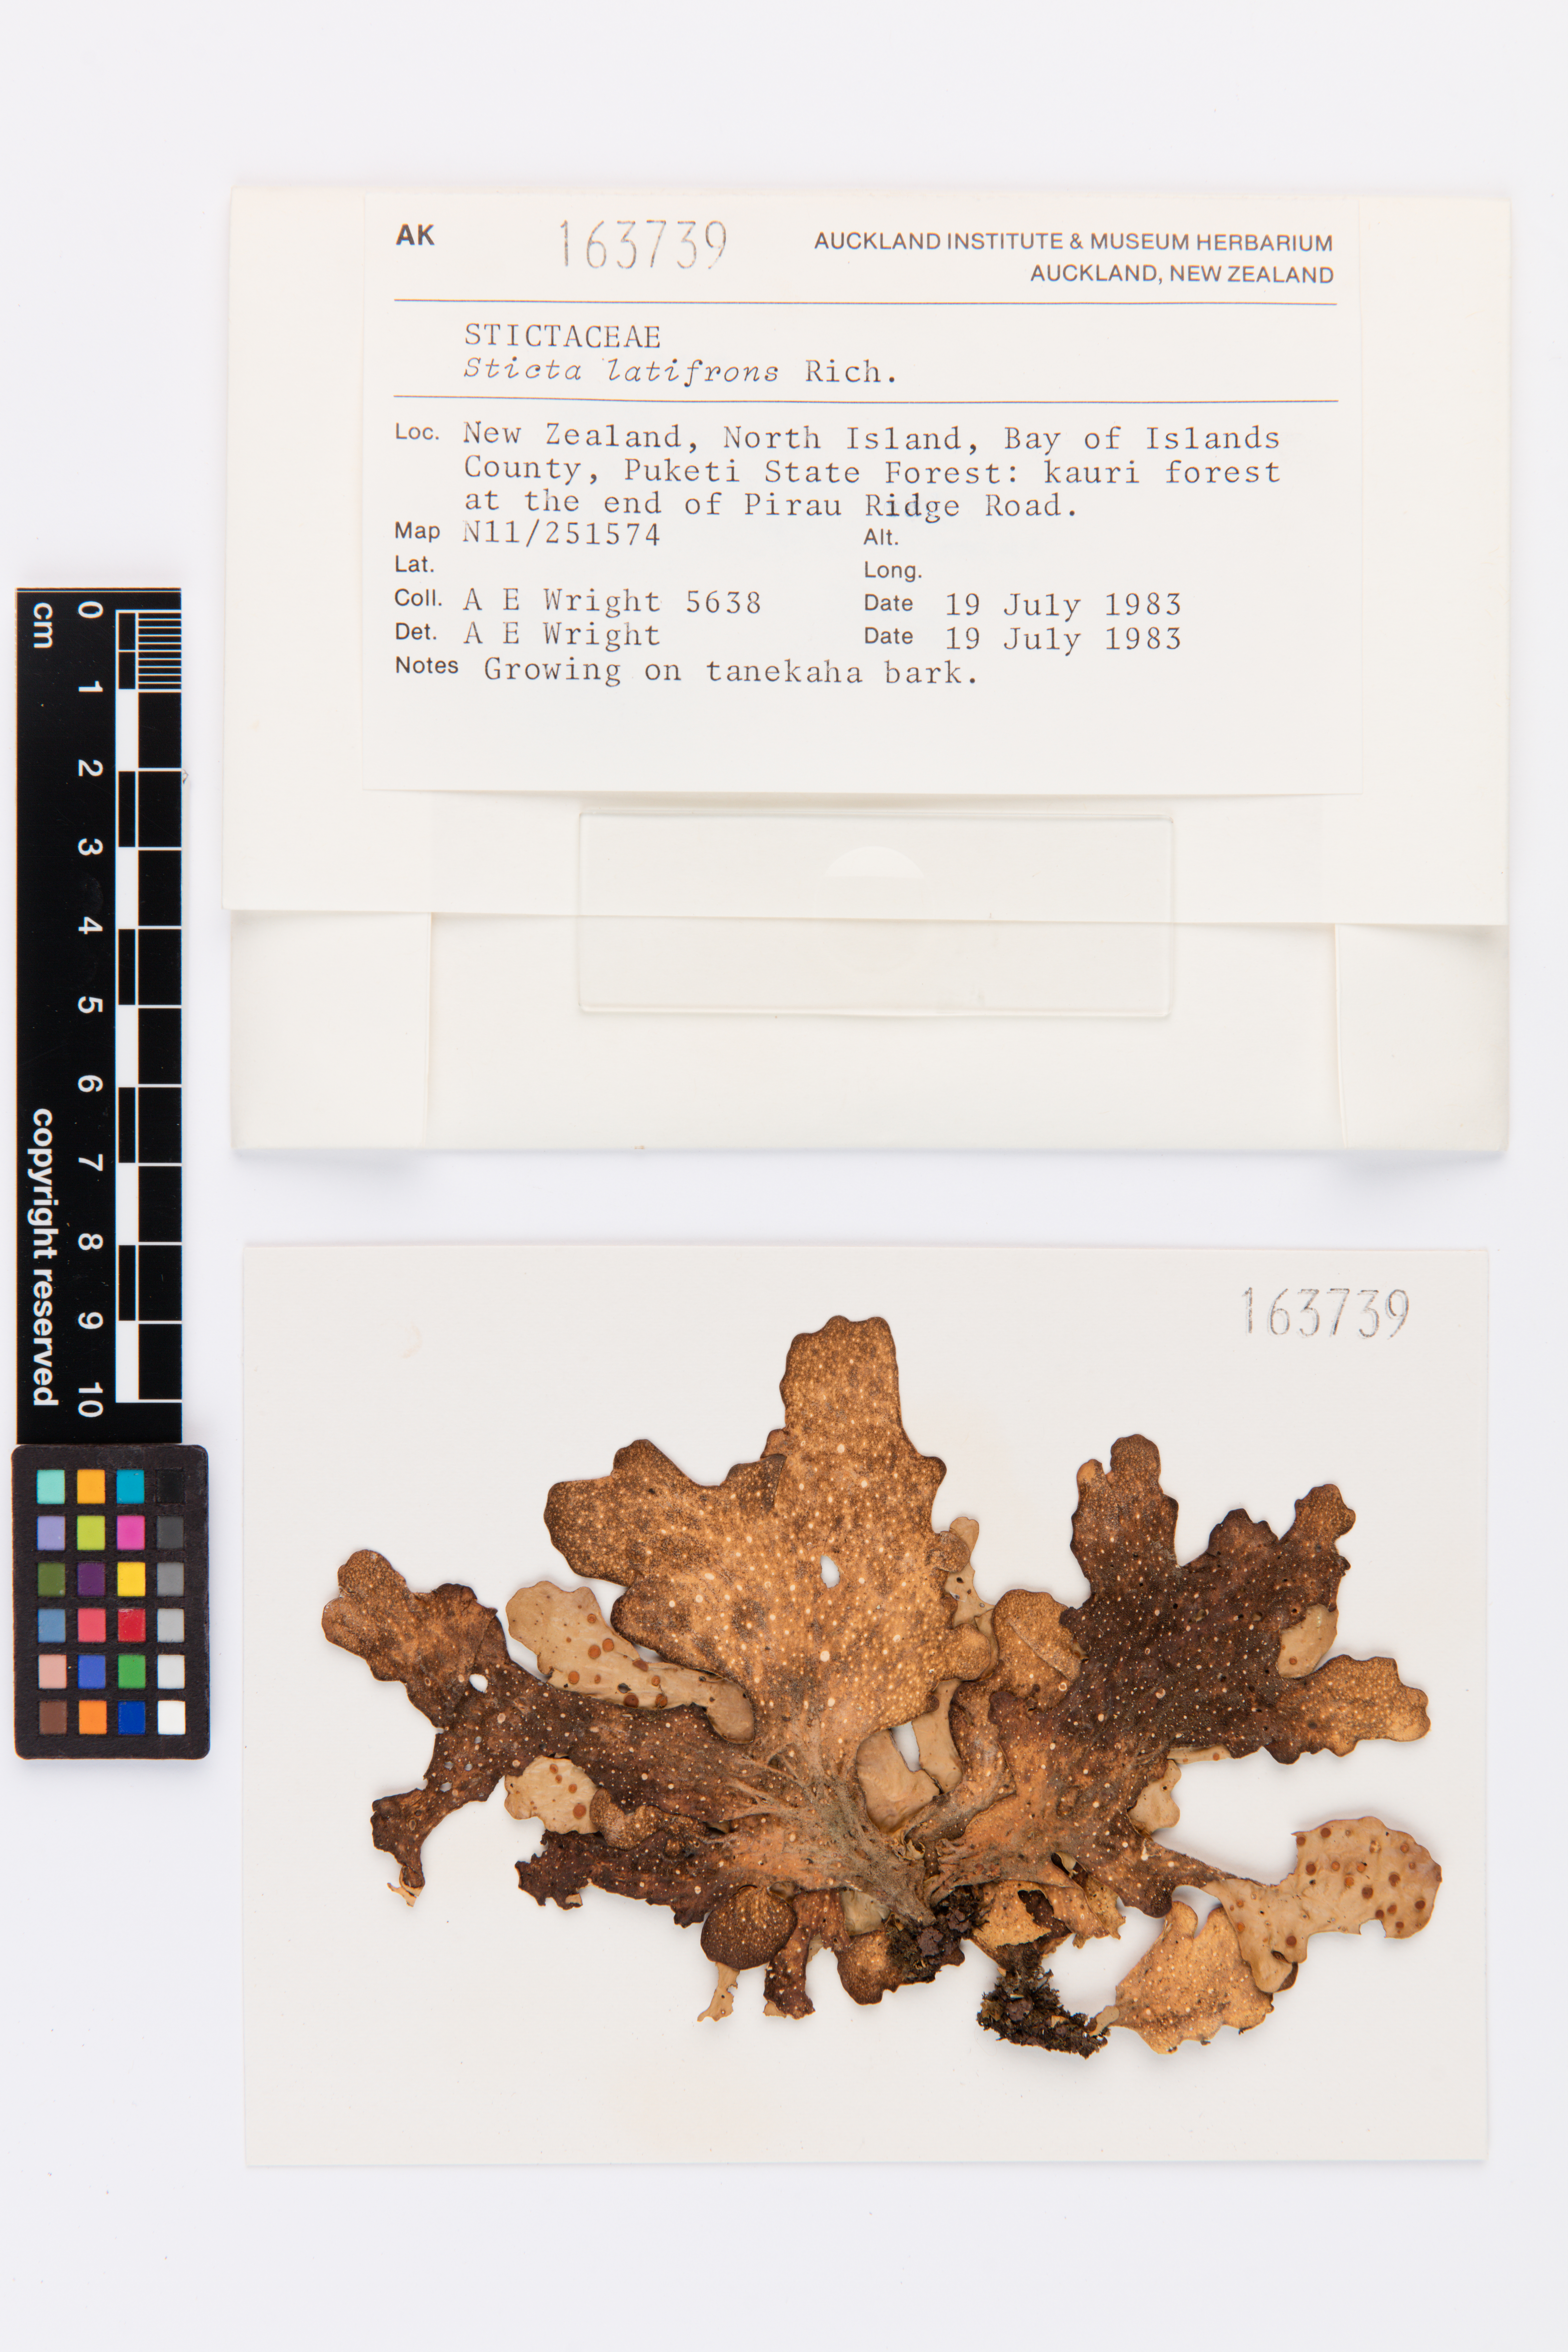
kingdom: Fungi
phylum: Ascomycota
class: Lecanoromycetes
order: Peltigerales
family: Lobariaceae
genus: Sticta
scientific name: Sticta latifrons
